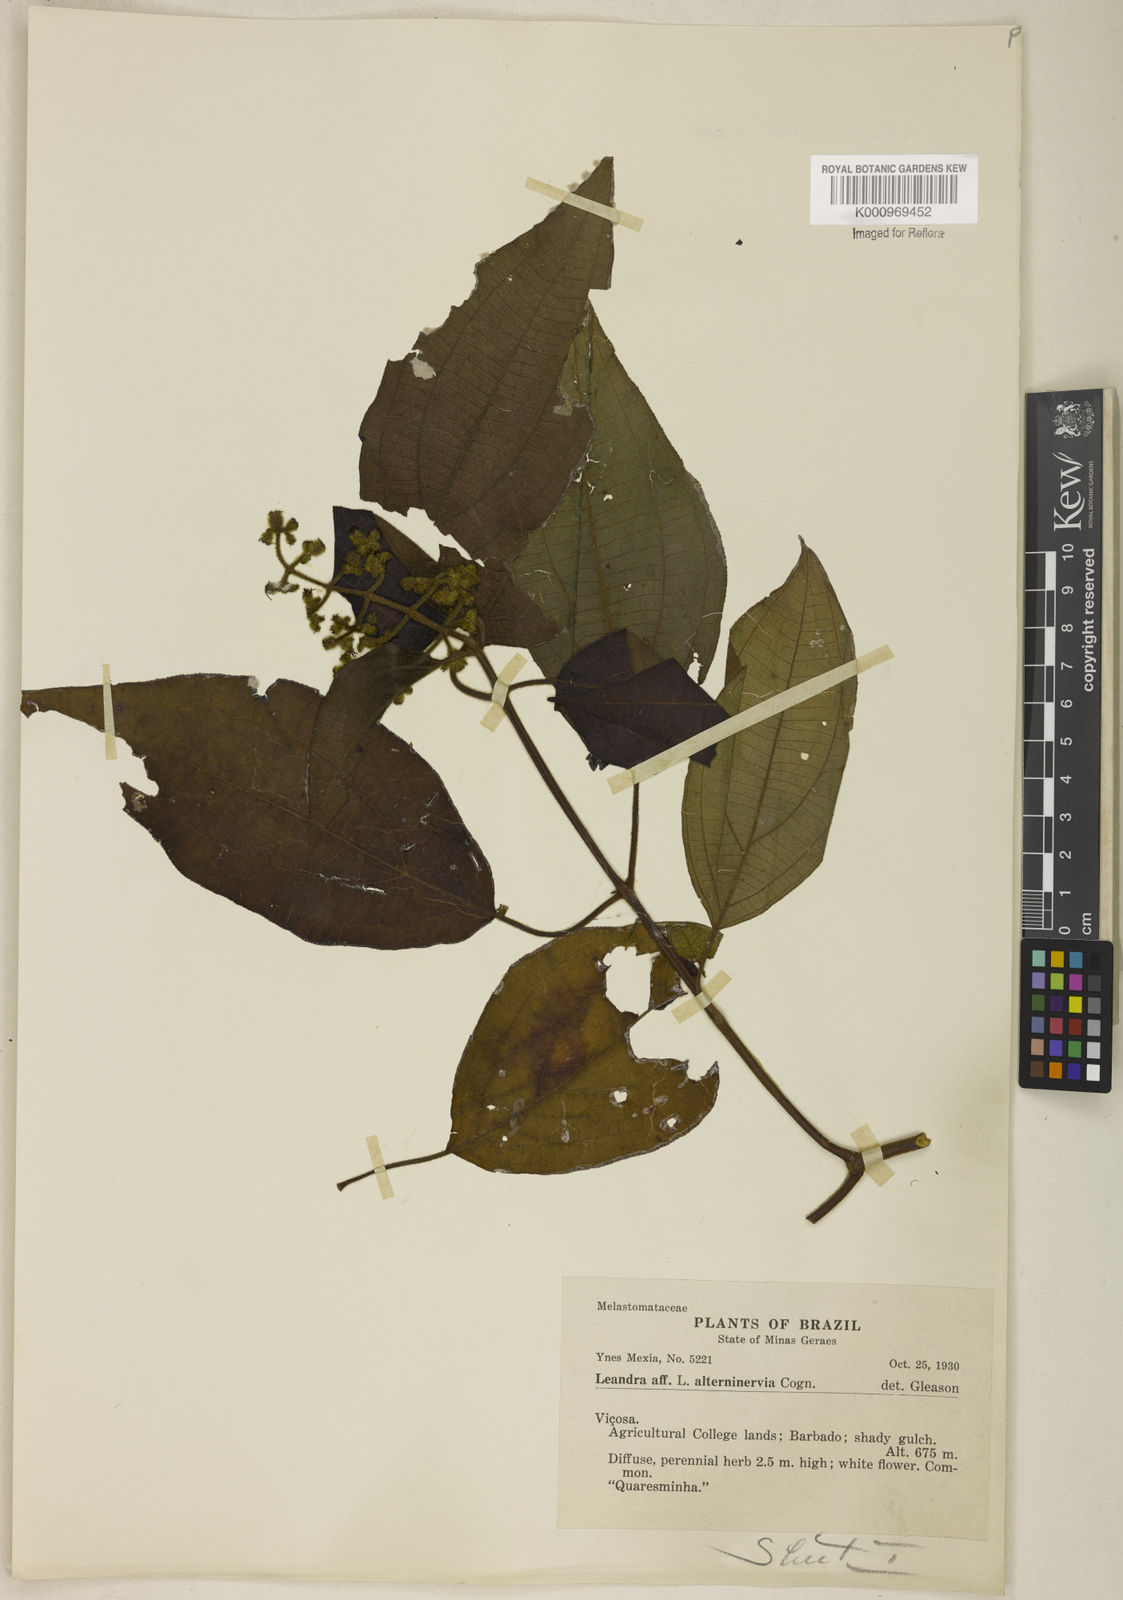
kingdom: Plantae
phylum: Tracheophyta
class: Magnoliopsida
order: Myrtales
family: Melastomataceae
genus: Miconia
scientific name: Miconia
